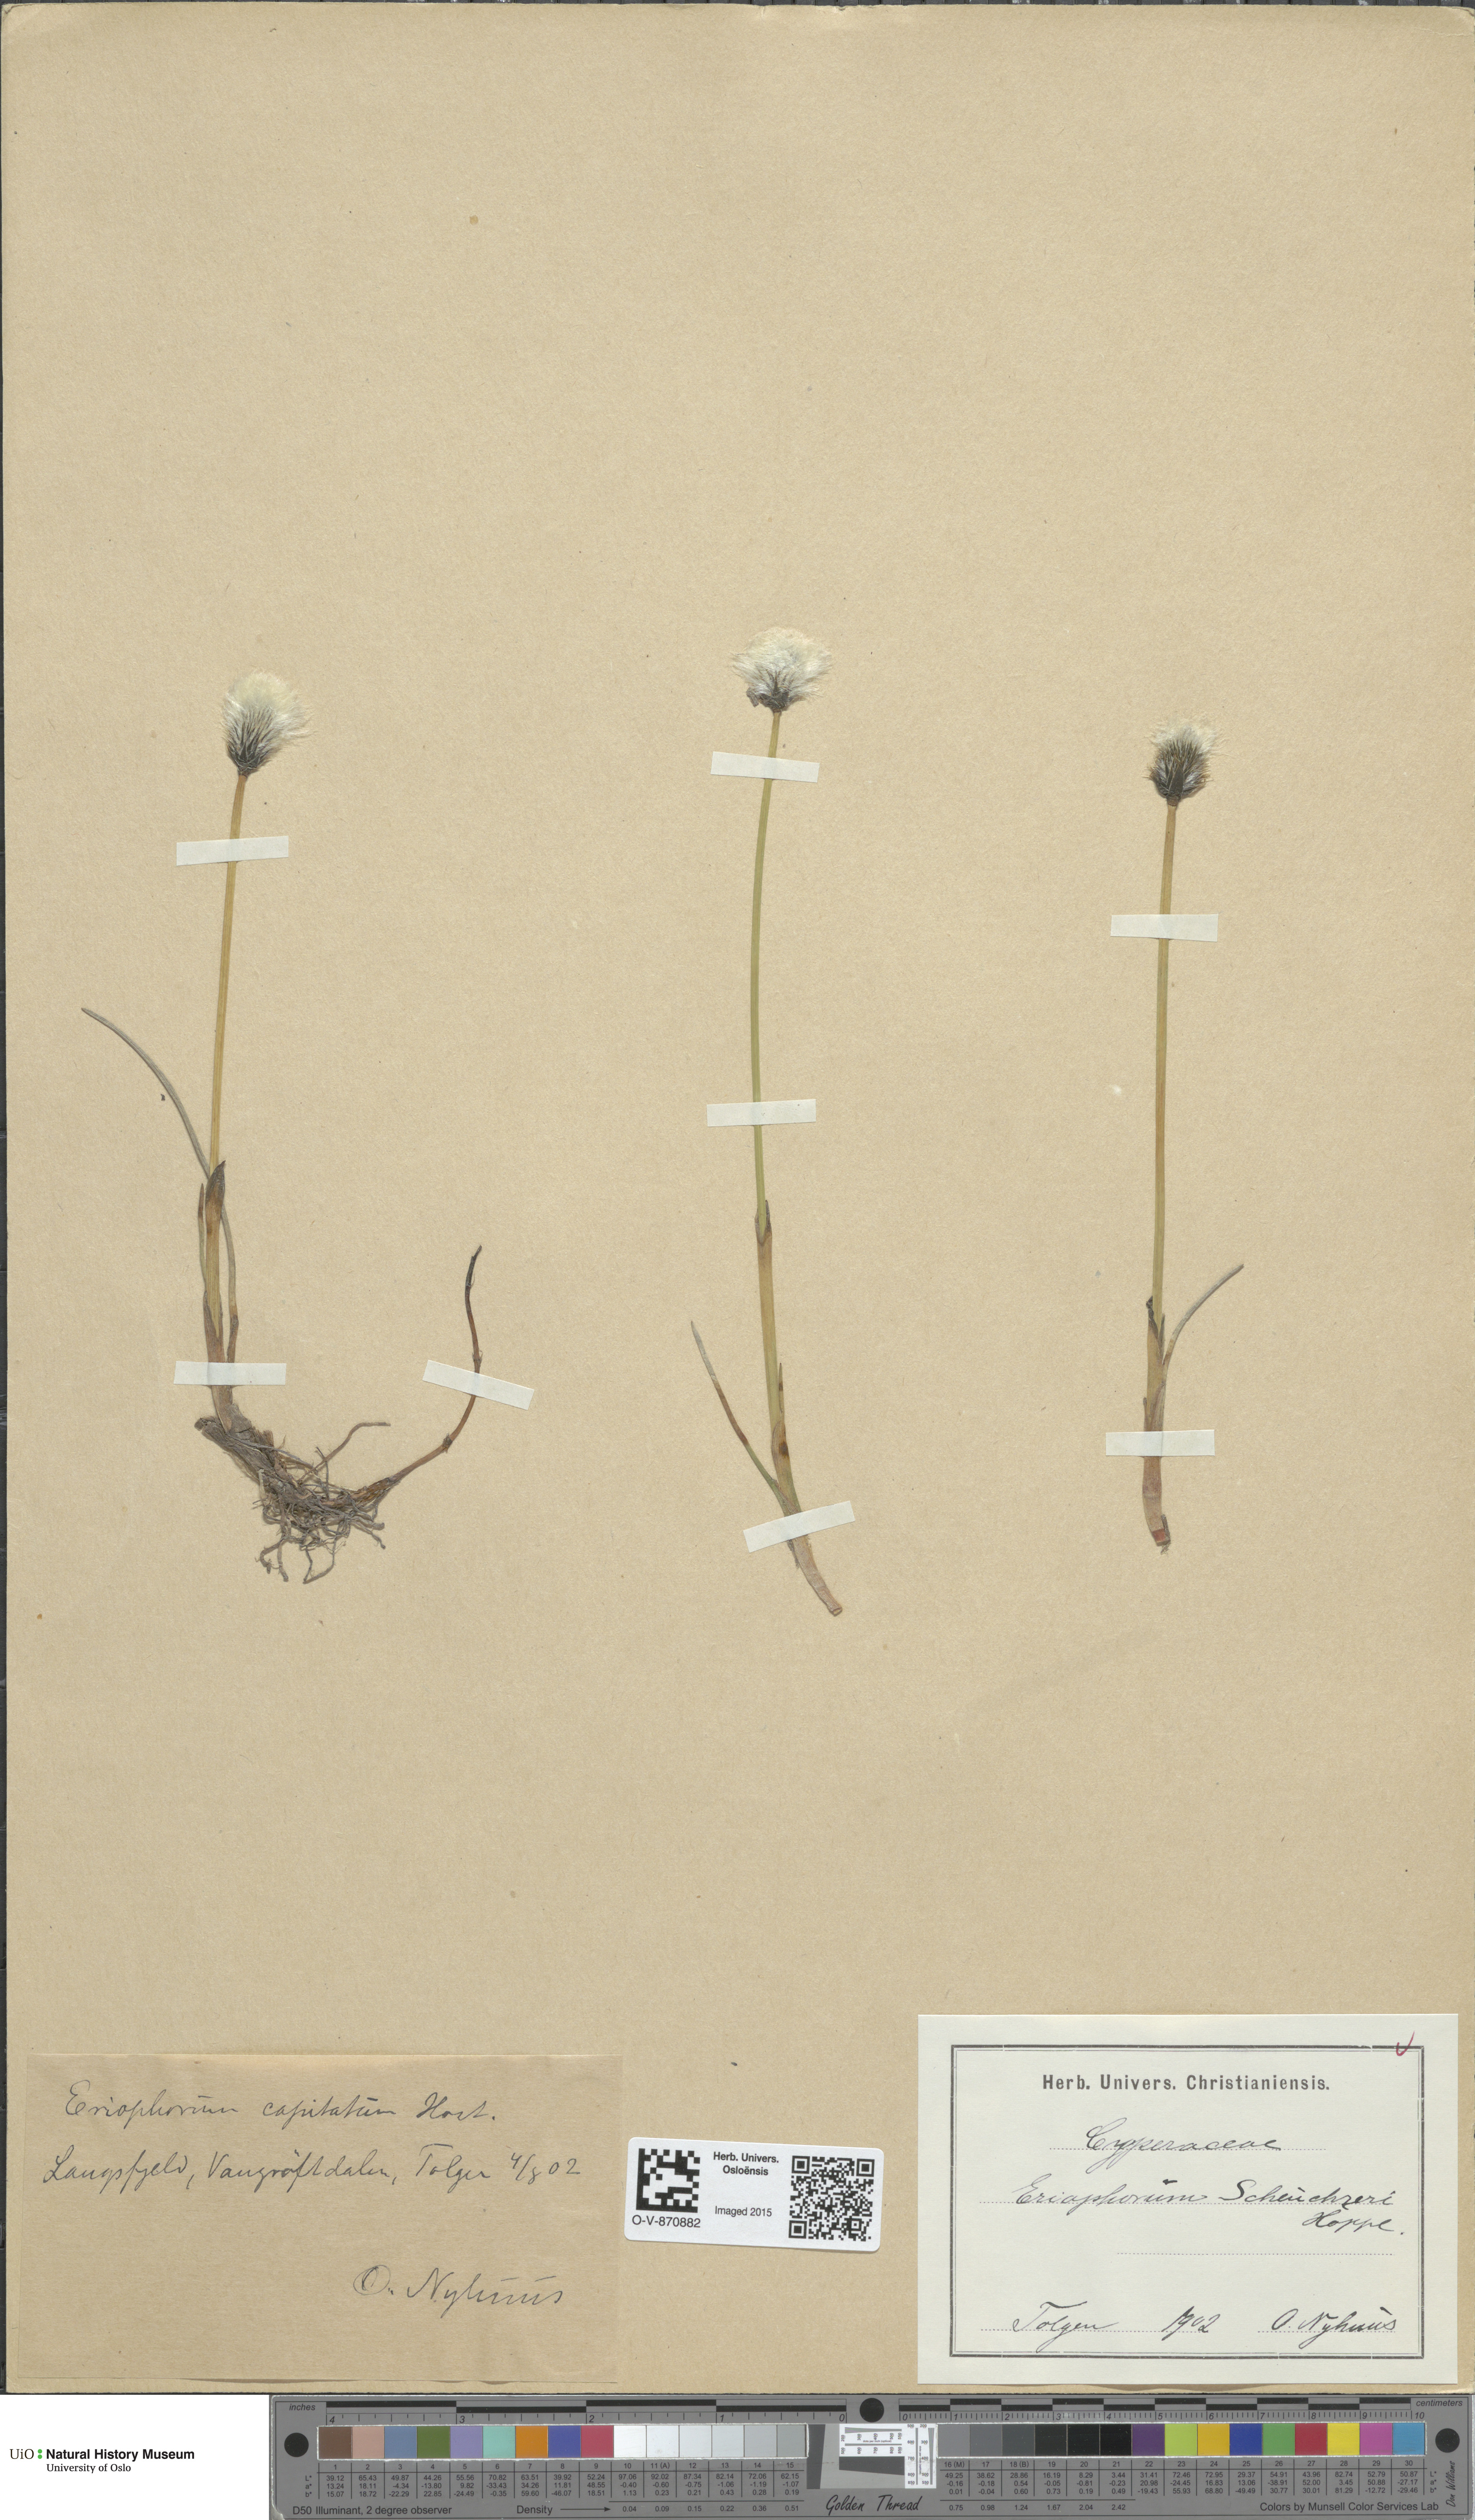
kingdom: Plantae
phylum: Tracheophyta
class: Liliopsida
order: Poales
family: Cyperaceae
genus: Eriophorum
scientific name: Eriophorum scheuchzeri
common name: Scheuchzer's cottongrass
